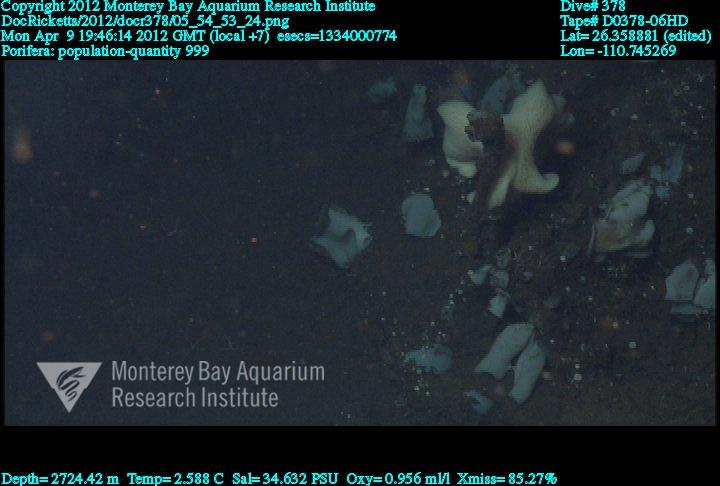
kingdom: Animalia
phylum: Porifera
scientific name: Porifera
